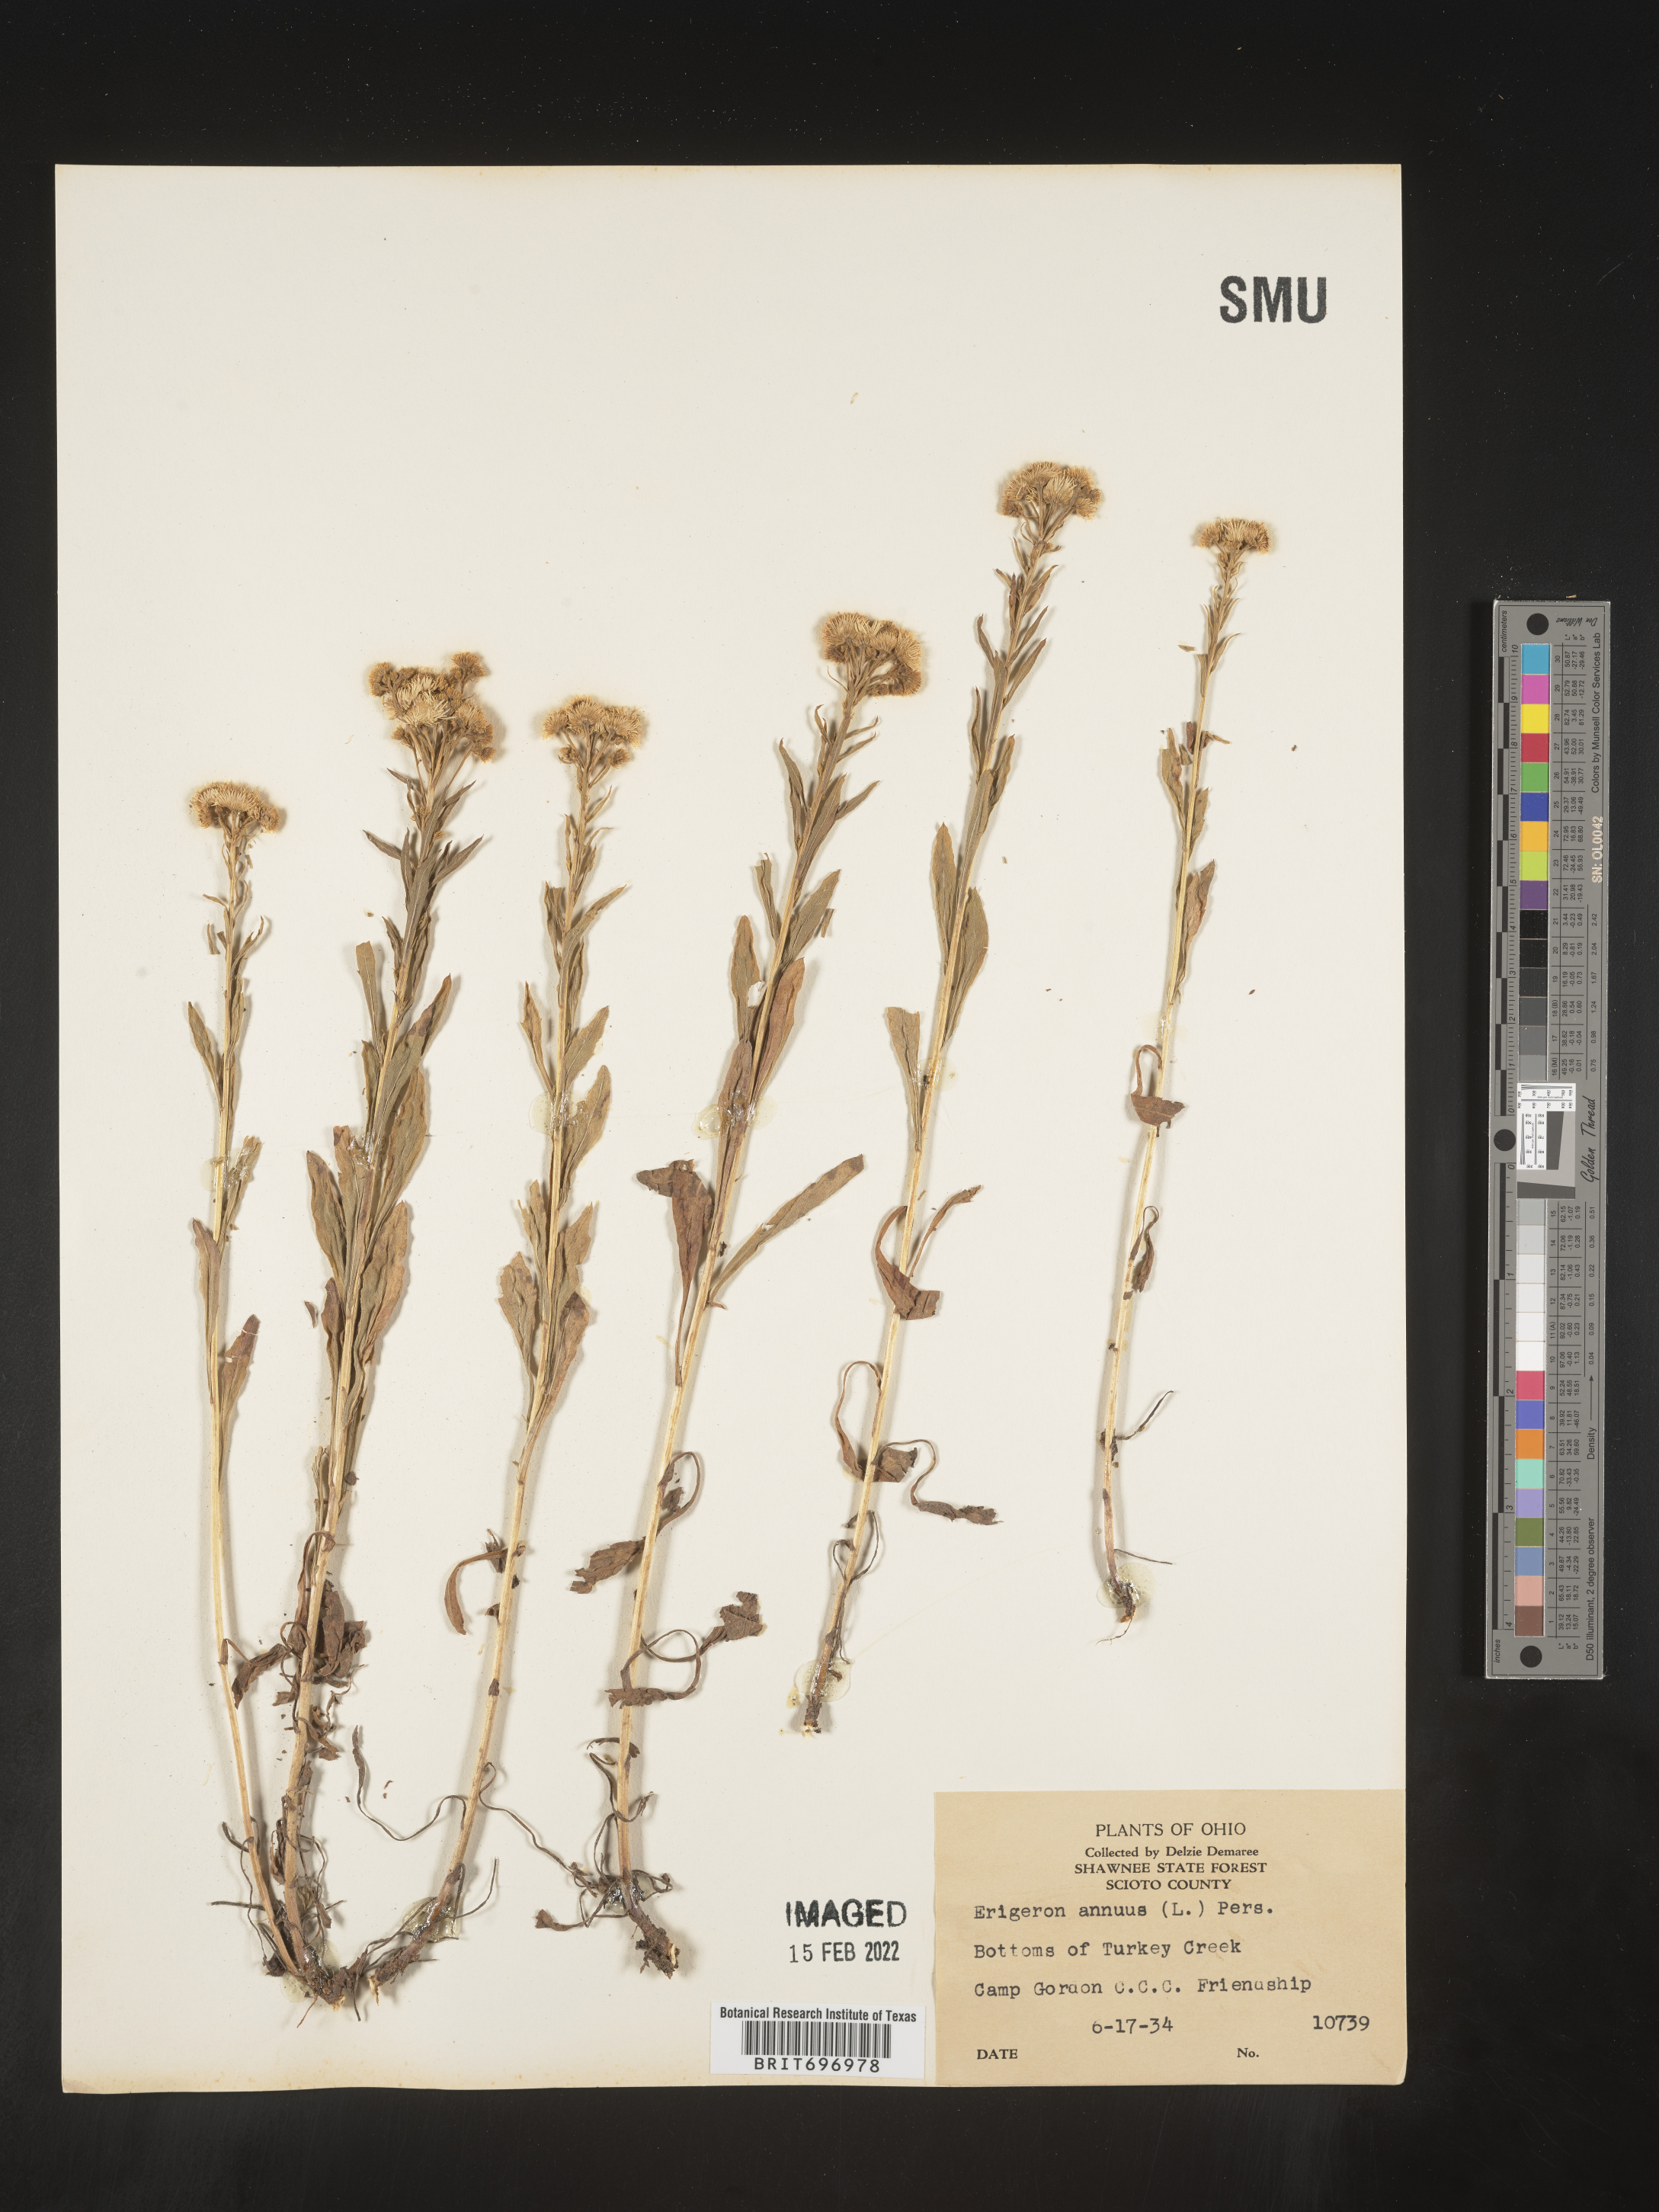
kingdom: Plantae
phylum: Tracheophyta
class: Magnoliopsida
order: Asterales
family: Asteraceae
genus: Erigeron
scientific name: Erigeron annuus
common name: Tall fleabane
